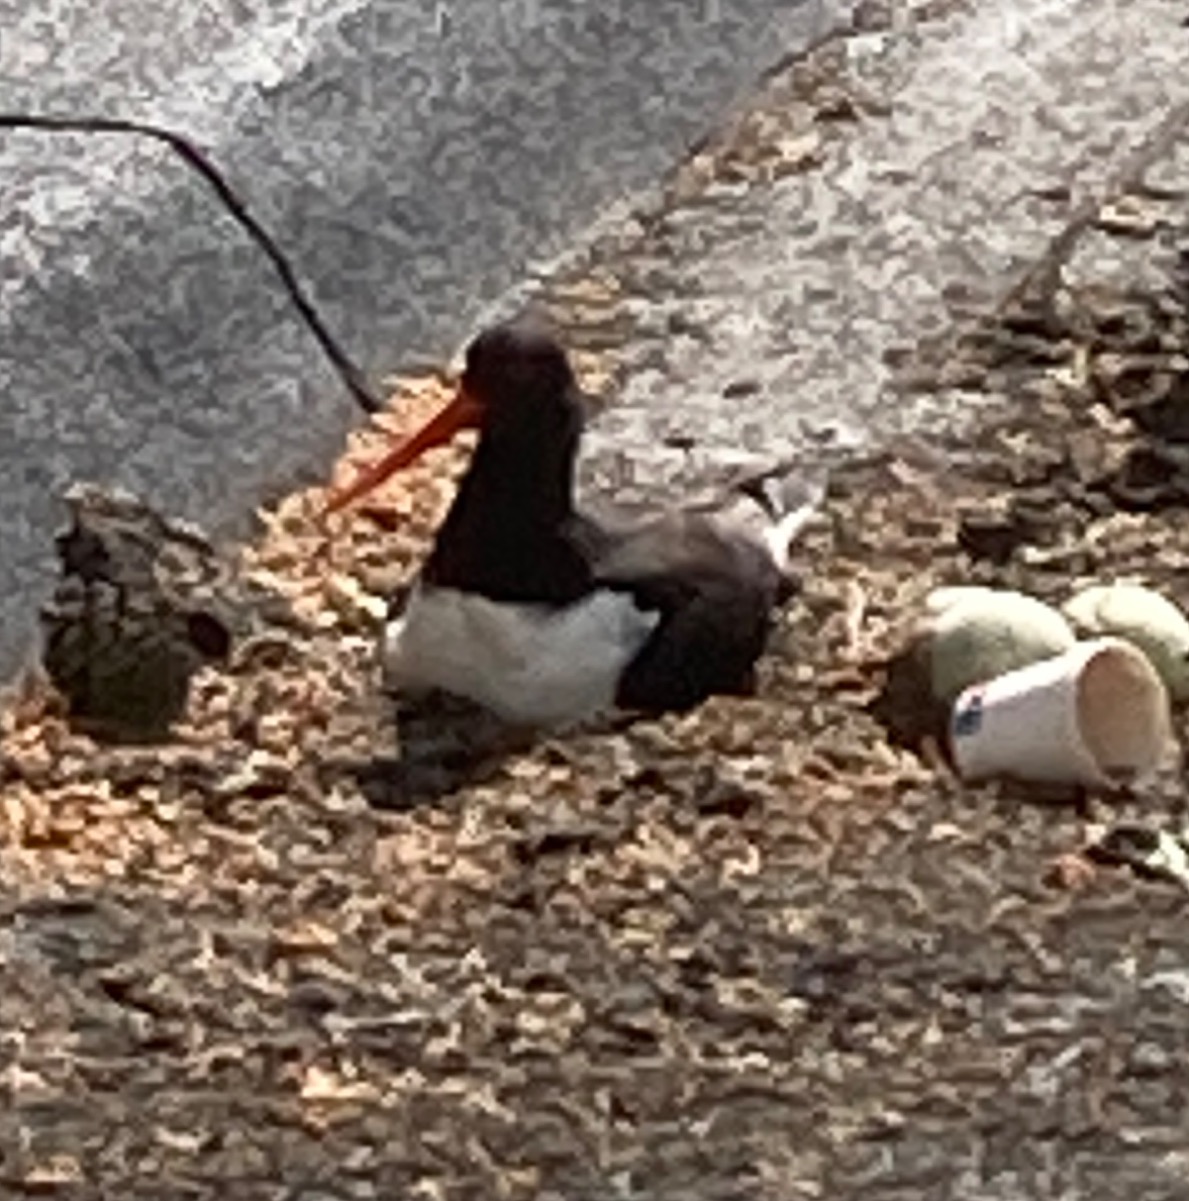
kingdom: Animalia
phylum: Chordata
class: Aves
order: Charadriiformes
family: Haematopodidae
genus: Haematopus
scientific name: Haematopus ostralegus
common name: Strandskade
